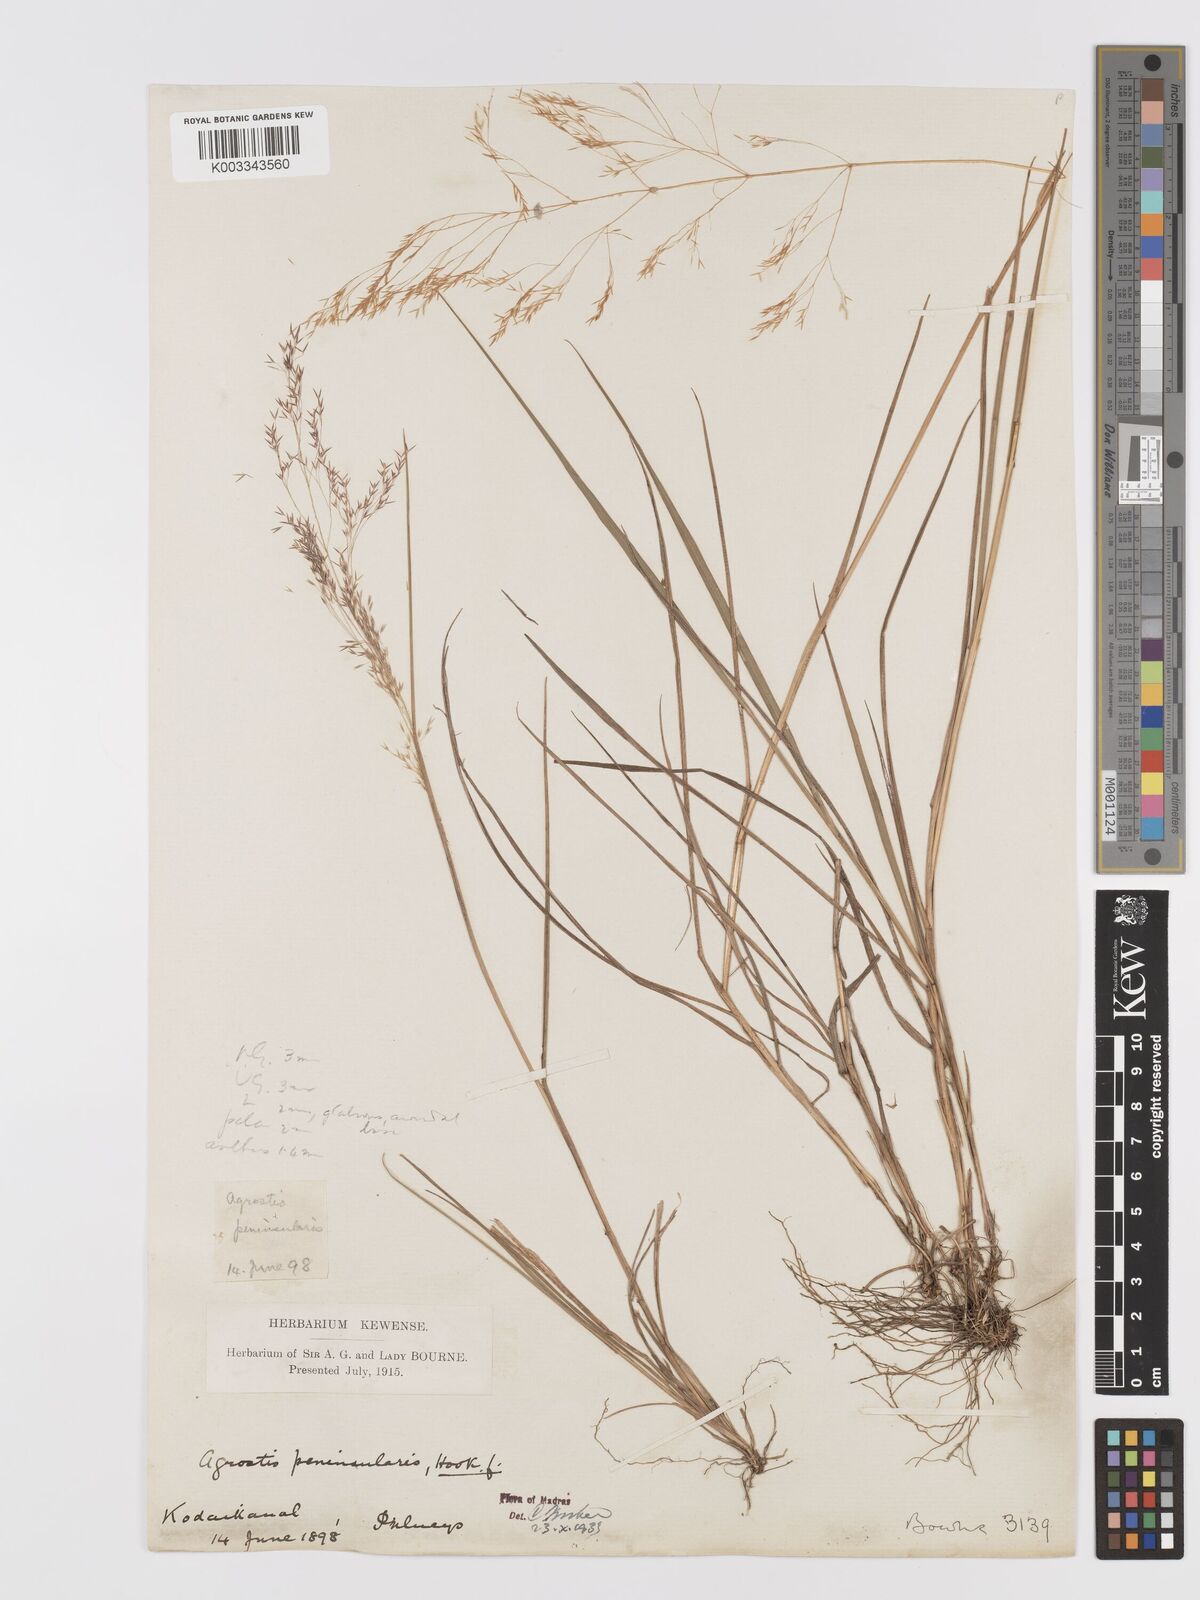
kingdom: Plantae
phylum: Tracheophyta
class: Liliopsida
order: Poales
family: Poaceae
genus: Agrostis
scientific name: Agrostis peninsularis
